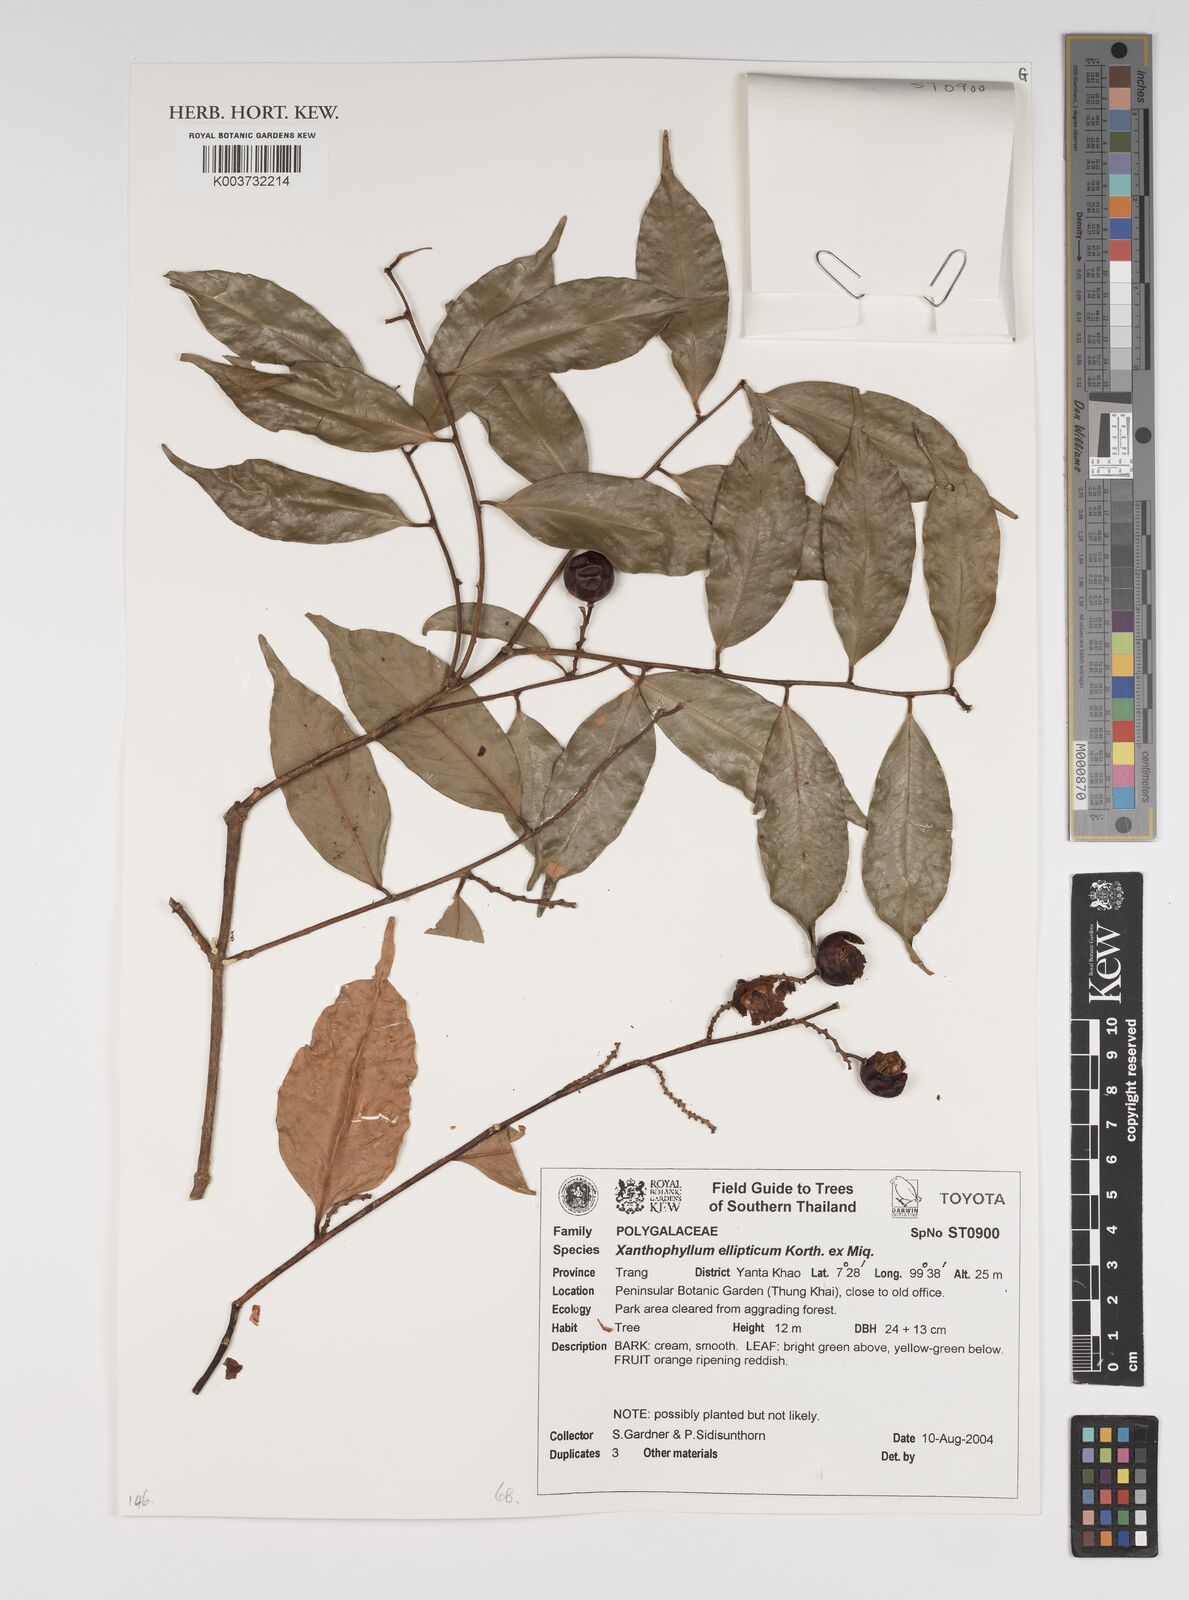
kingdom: Plantae
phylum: Tracheophyta
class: Magnoliopsida
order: Fabales
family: Polygalaceae
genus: Xanthophyllum
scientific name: Xanthophyllum ellipticum
